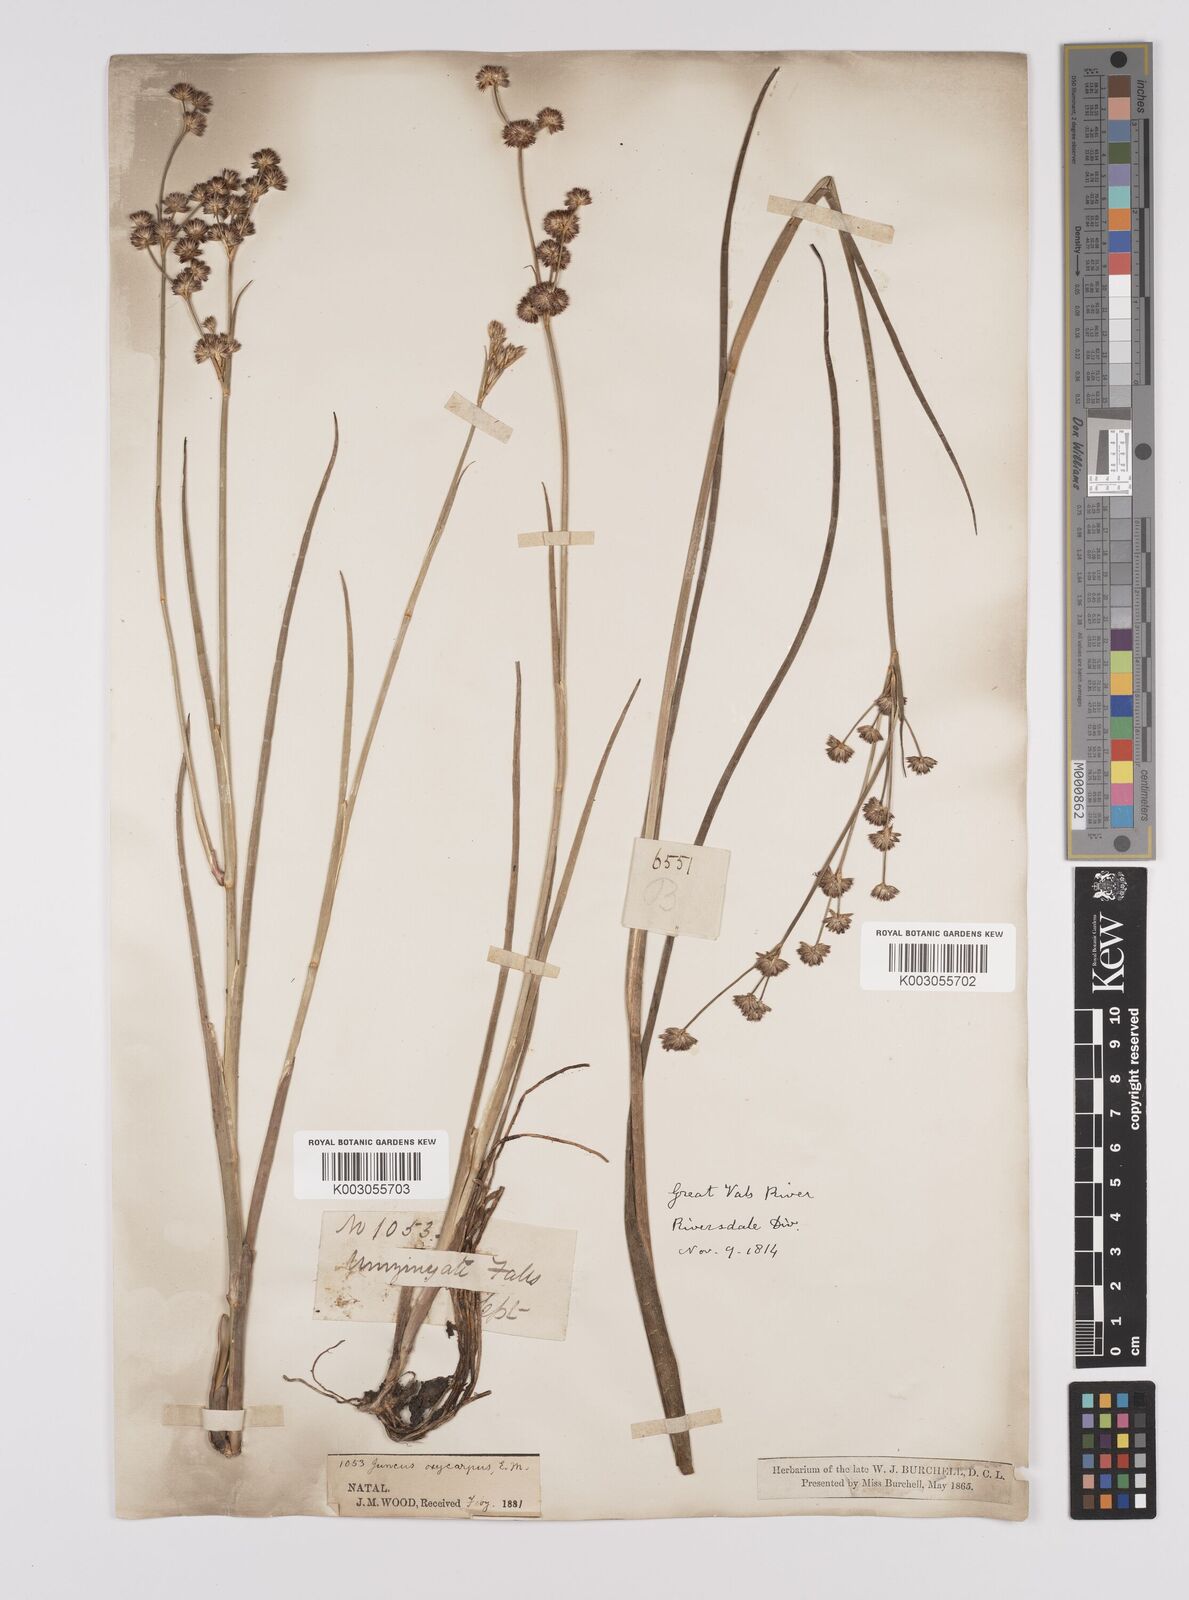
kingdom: Plantae
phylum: Tracheophyta
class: Liliopsida
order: Poales
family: Juncaceae
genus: Juncus
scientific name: Juncus oxycarpus
